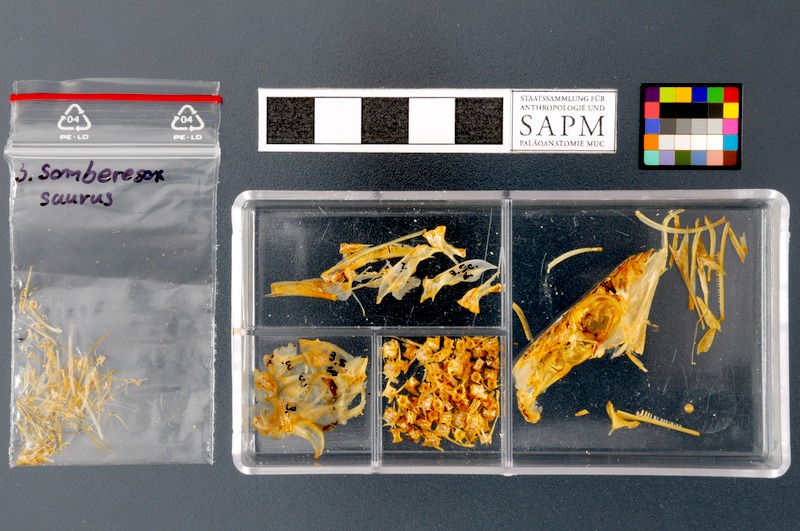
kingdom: Animalia
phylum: Chordata
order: Beloniformes
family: Scomberesocidae
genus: Scomberesox
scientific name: Scomberesox saurus
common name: Skipper
